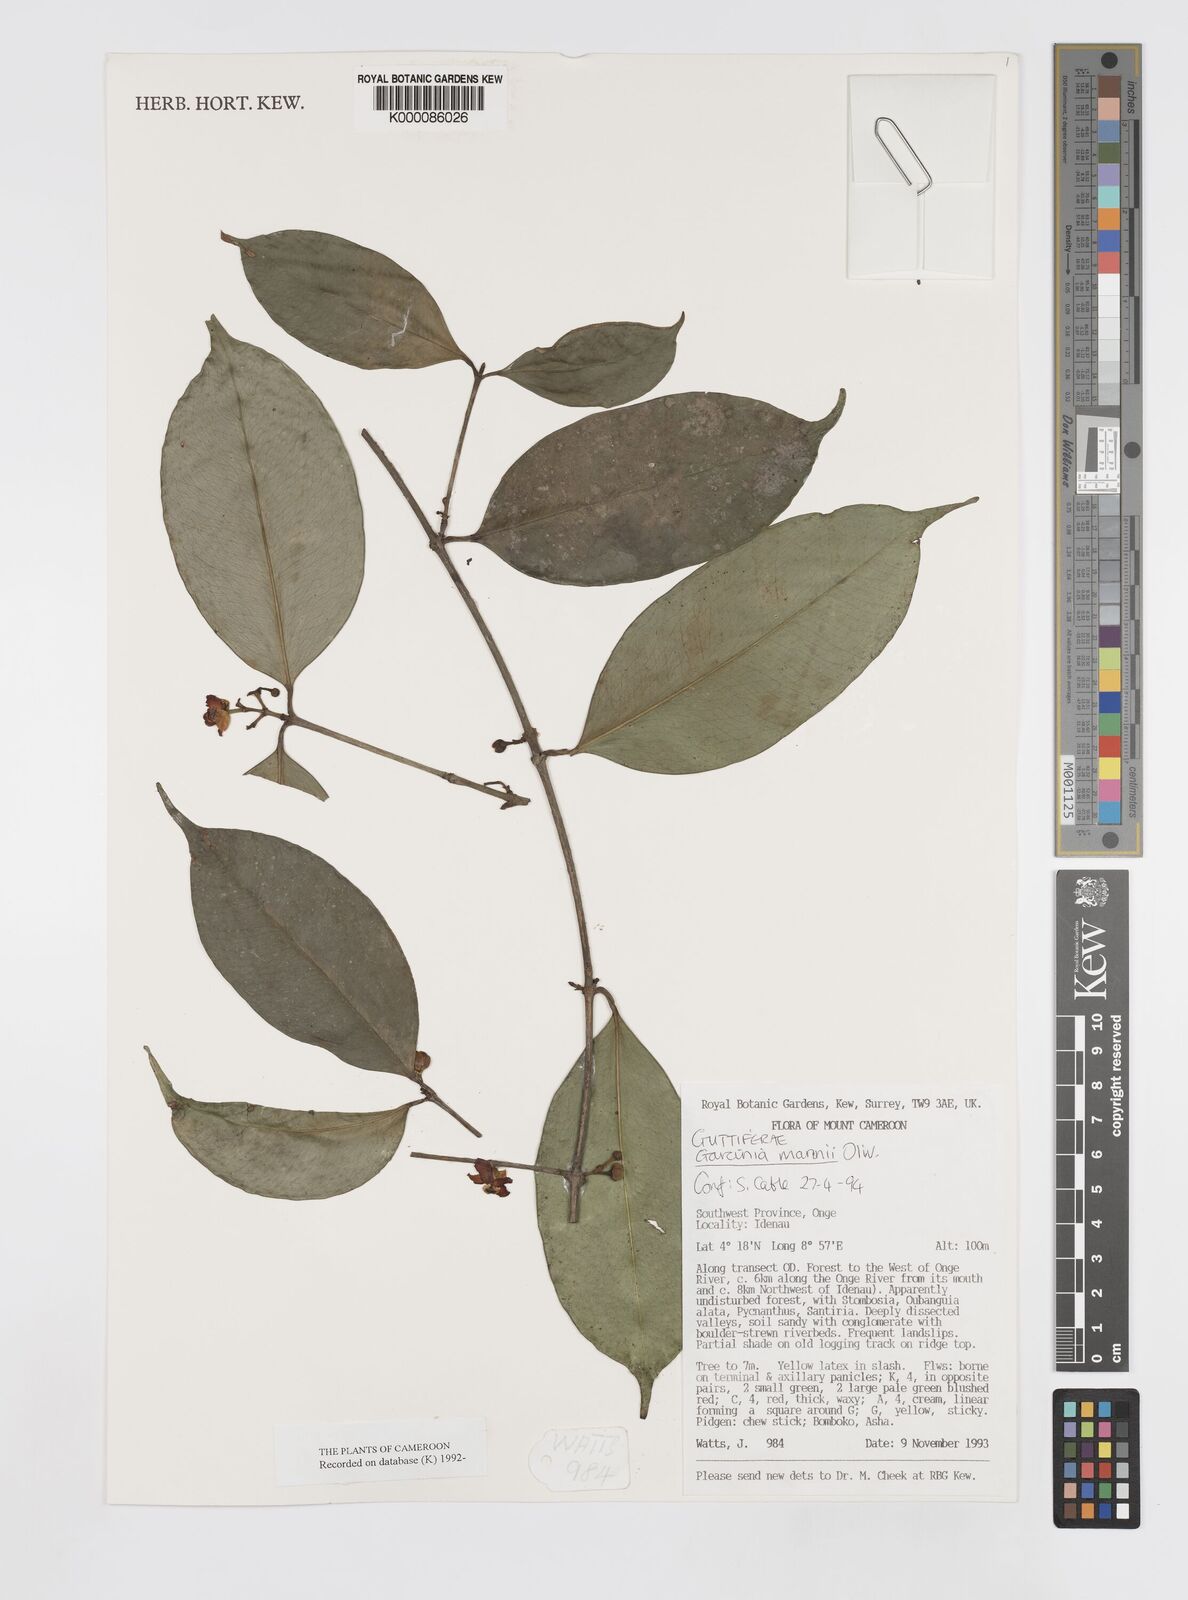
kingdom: Plantae
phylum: Tracheophyta
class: Magnoliopsida
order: Malpighiales
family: Clusiaceae
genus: Garcinia
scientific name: Garcinia mannii
